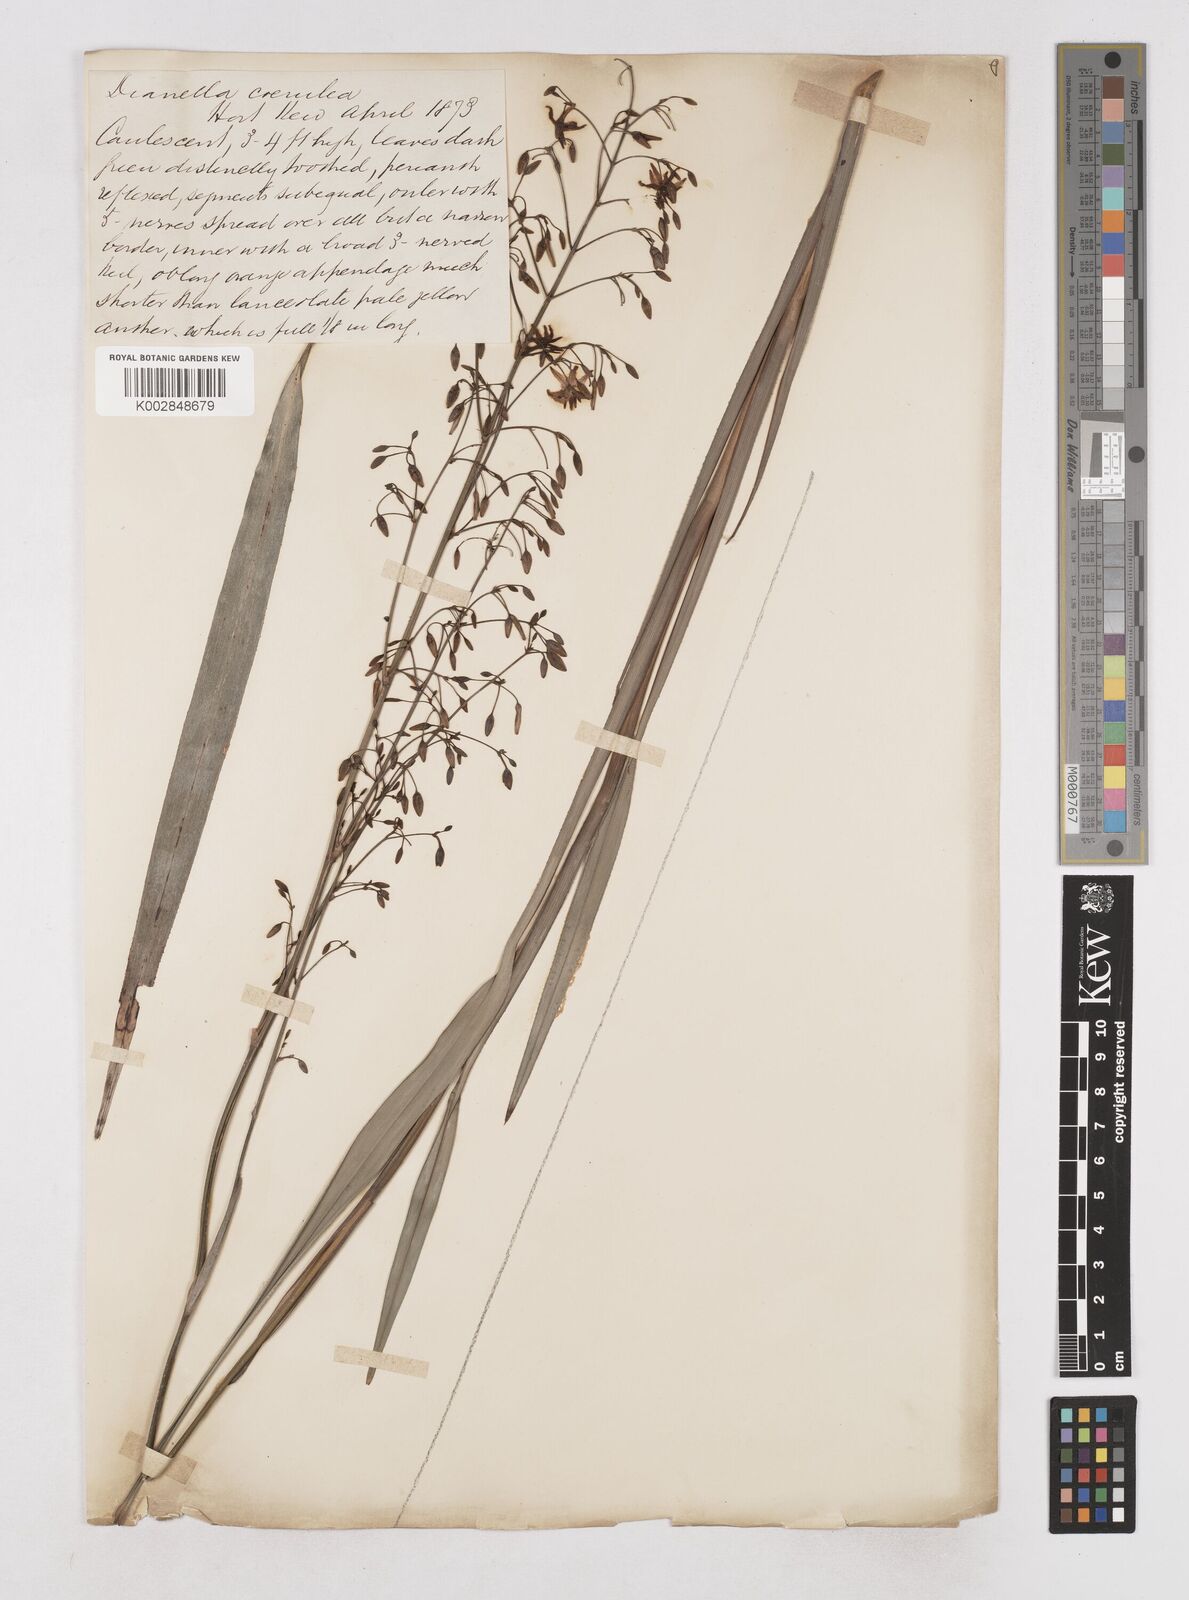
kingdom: Plantae
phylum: Tracheophyta
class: Liliopsida
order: Asparagales
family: Asphodelaceae
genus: Dianella
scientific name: Dianella caerulea
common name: Blue flax-lily
